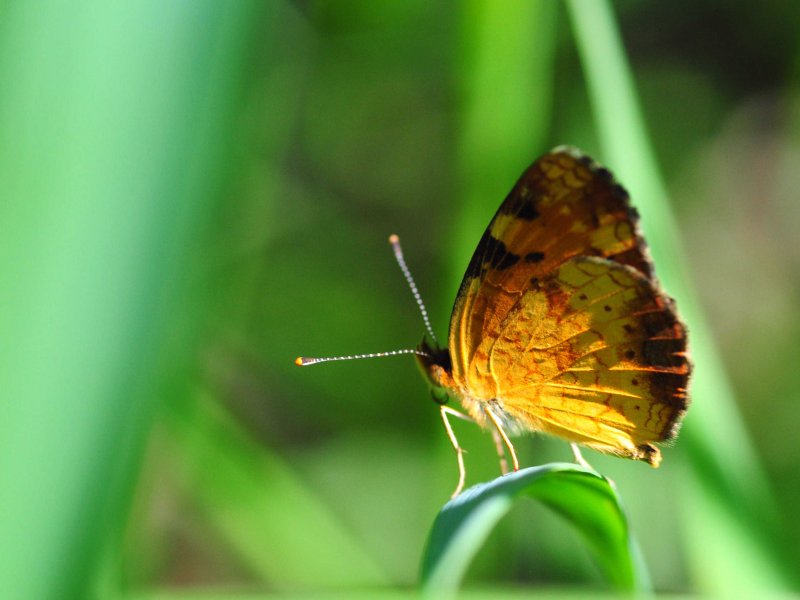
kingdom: Animalia
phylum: Arthropoda
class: Insecta
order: Lepidoptera
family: Nymphalidae
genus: Phyciodes
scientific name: Phyciodes tharos
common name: Northern Crescent
